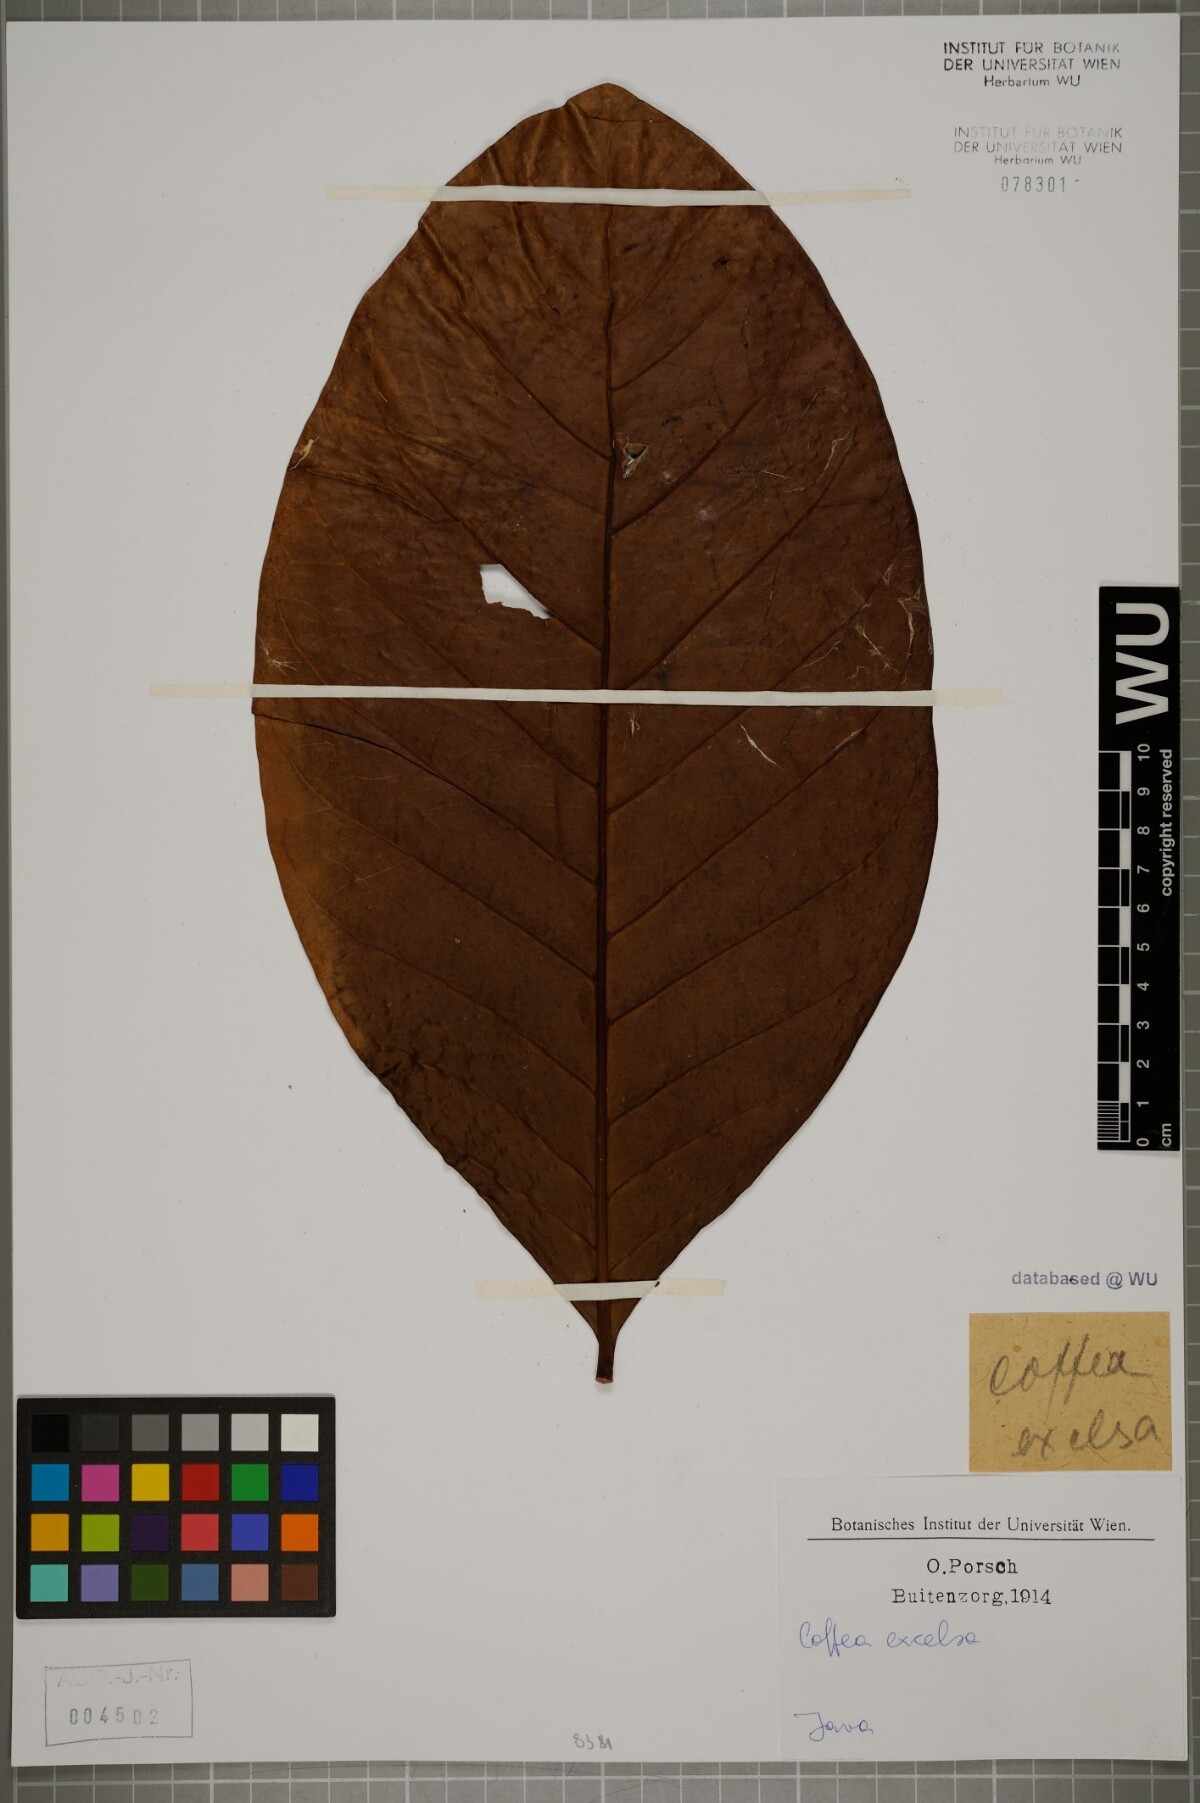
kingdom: Plantae
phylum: Tracheophyta
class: Magnoliopsida
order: Gentianales
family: Rubiaceae
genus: Coffea
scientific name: Coffea liberica
